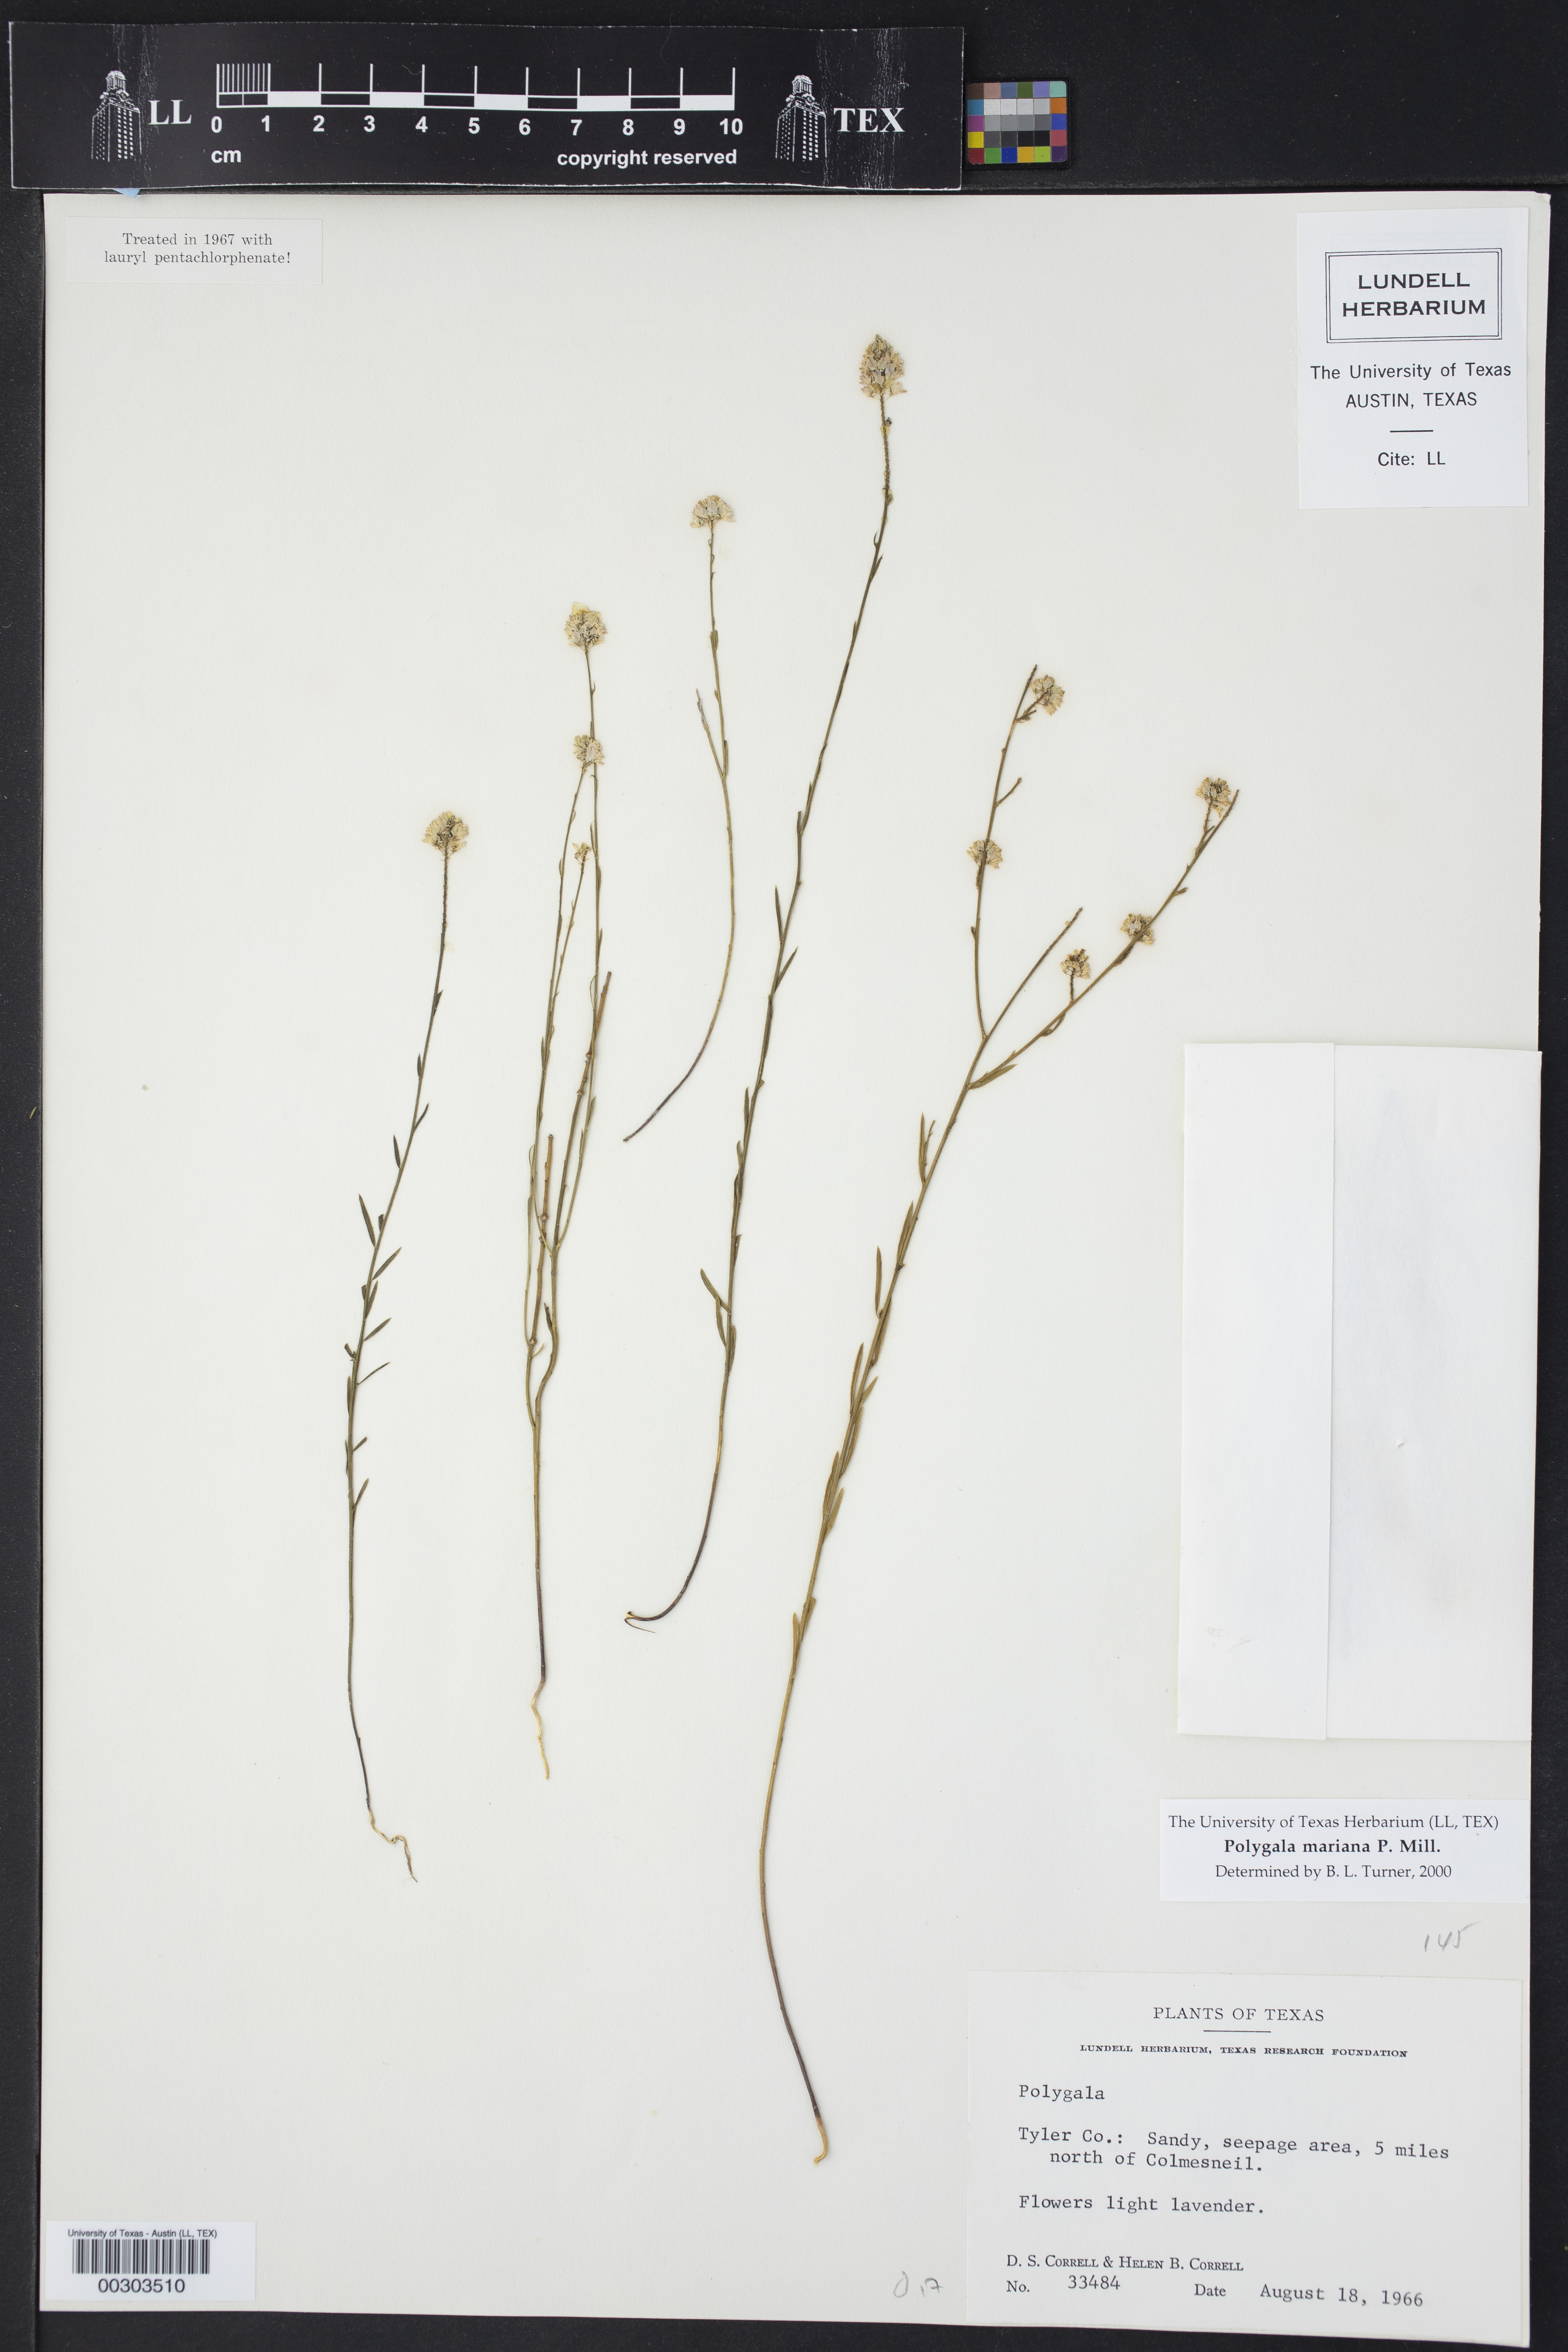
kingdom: Plantae
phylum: Tracheophyta
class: Magnoliopsida
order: Fabales
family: Polygalaceae
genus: Polygala
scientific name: Polygala mariana
